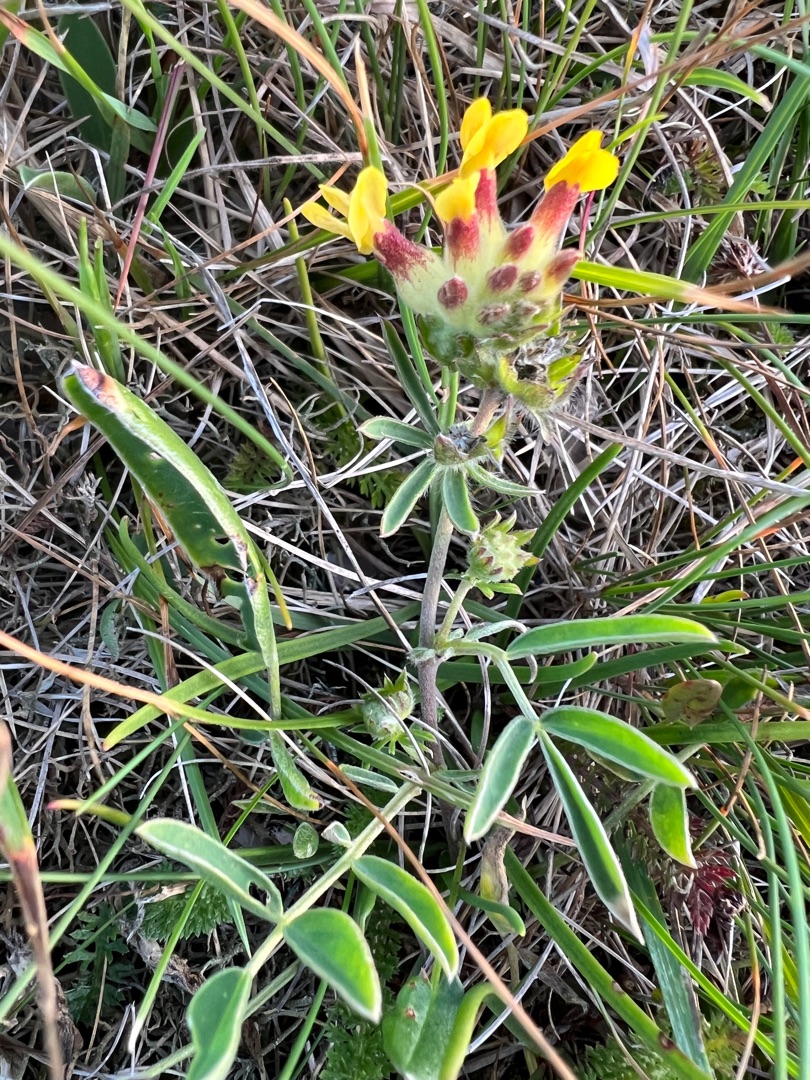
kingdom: Plantae
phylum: Tracheophyta
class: Magnoliopsida
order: Fabales
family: Fabaceae
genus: Anthyllis
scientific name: Anthyllis vulneraria
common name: Rundbælg
